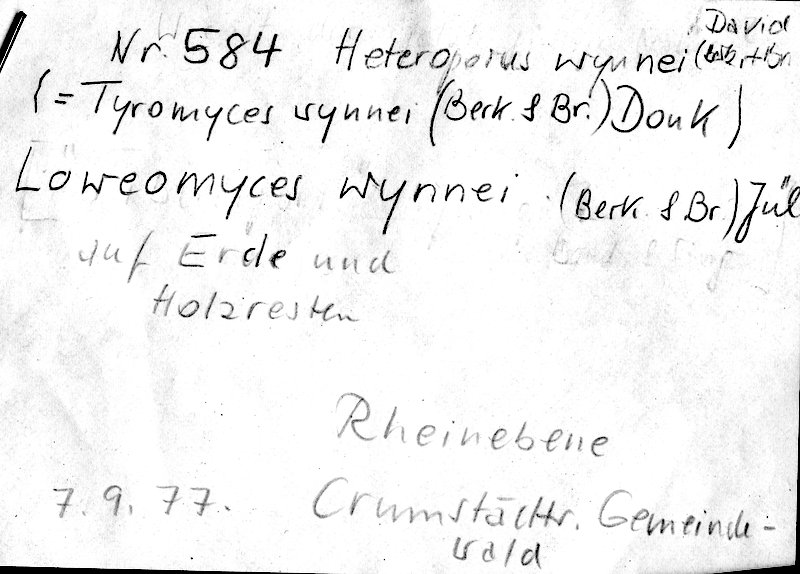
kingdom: Fungi
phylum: Basidiomycota
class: Agaricomycetes
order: Polyporales
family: Steccherinaceae
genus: Loweomyces
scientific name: Loweomyces wynneae
